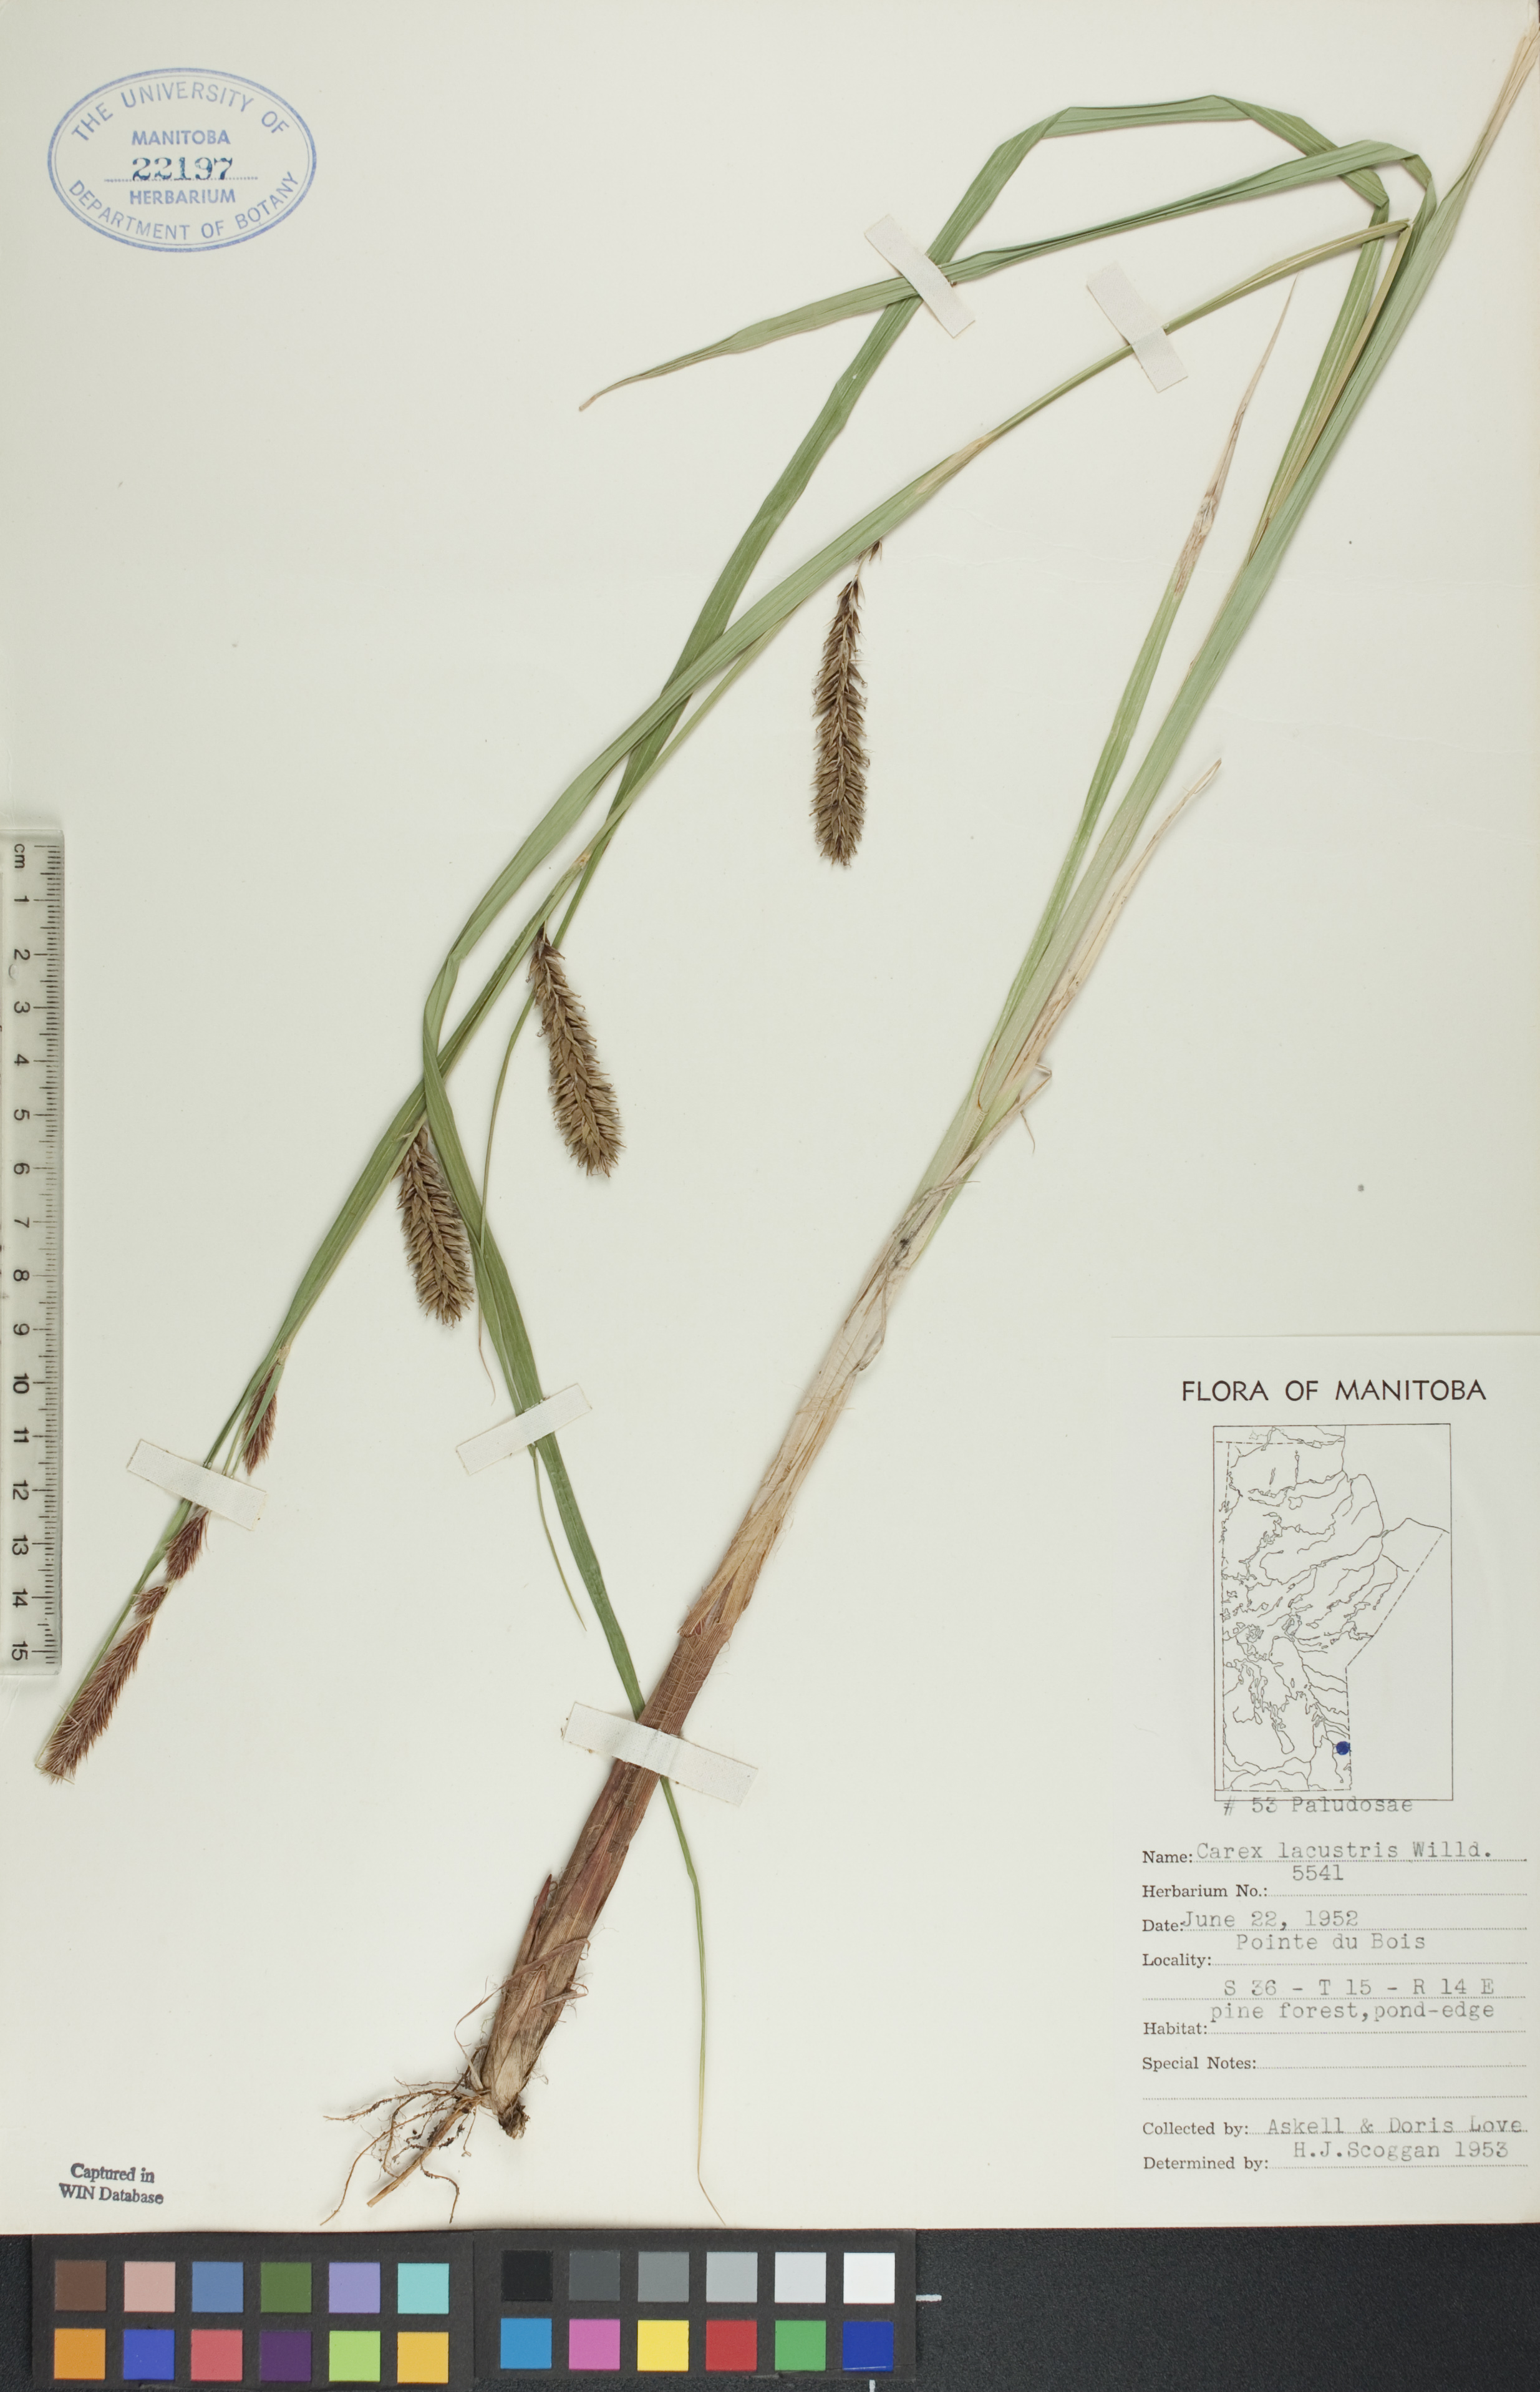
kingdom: Plantae
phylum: Tracheophyta
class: Liliopsida
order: Poales
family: Cyperaceae
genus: Carex
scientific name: Carex lacustris
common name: Common lake sedge
